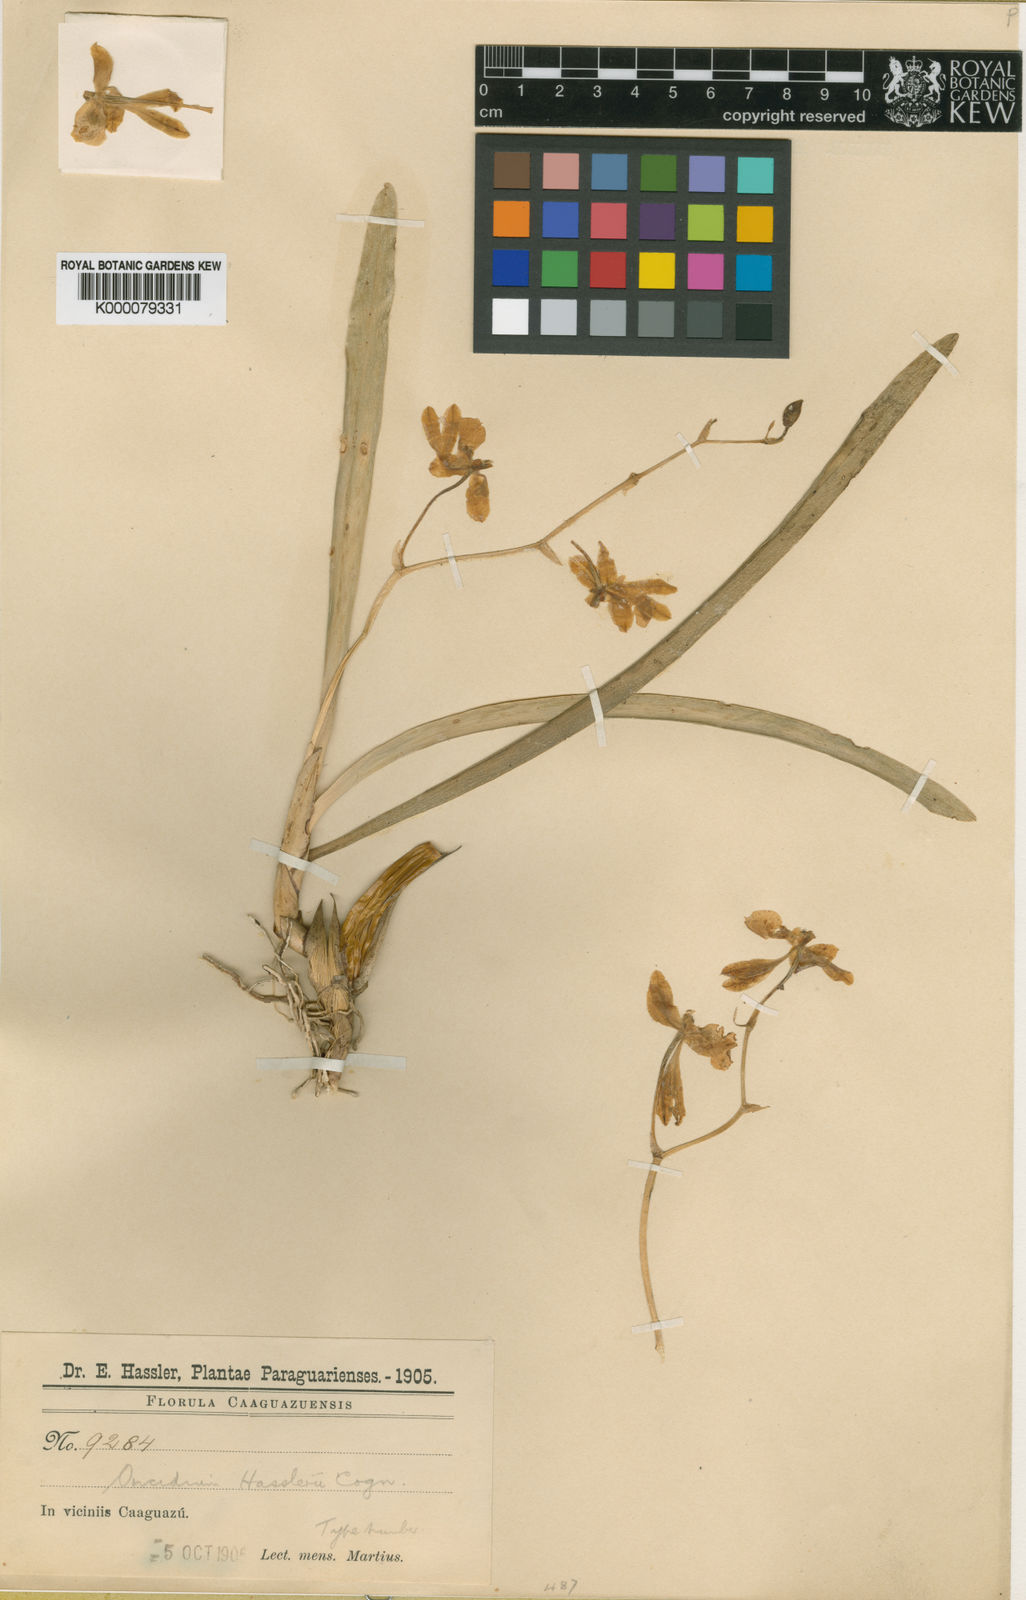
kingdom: Plantae
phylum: Tracheophyta
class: Liliopsida
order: Asparagales
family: Orchidaceae
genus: Gomesa
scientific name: Gomesa longipes
